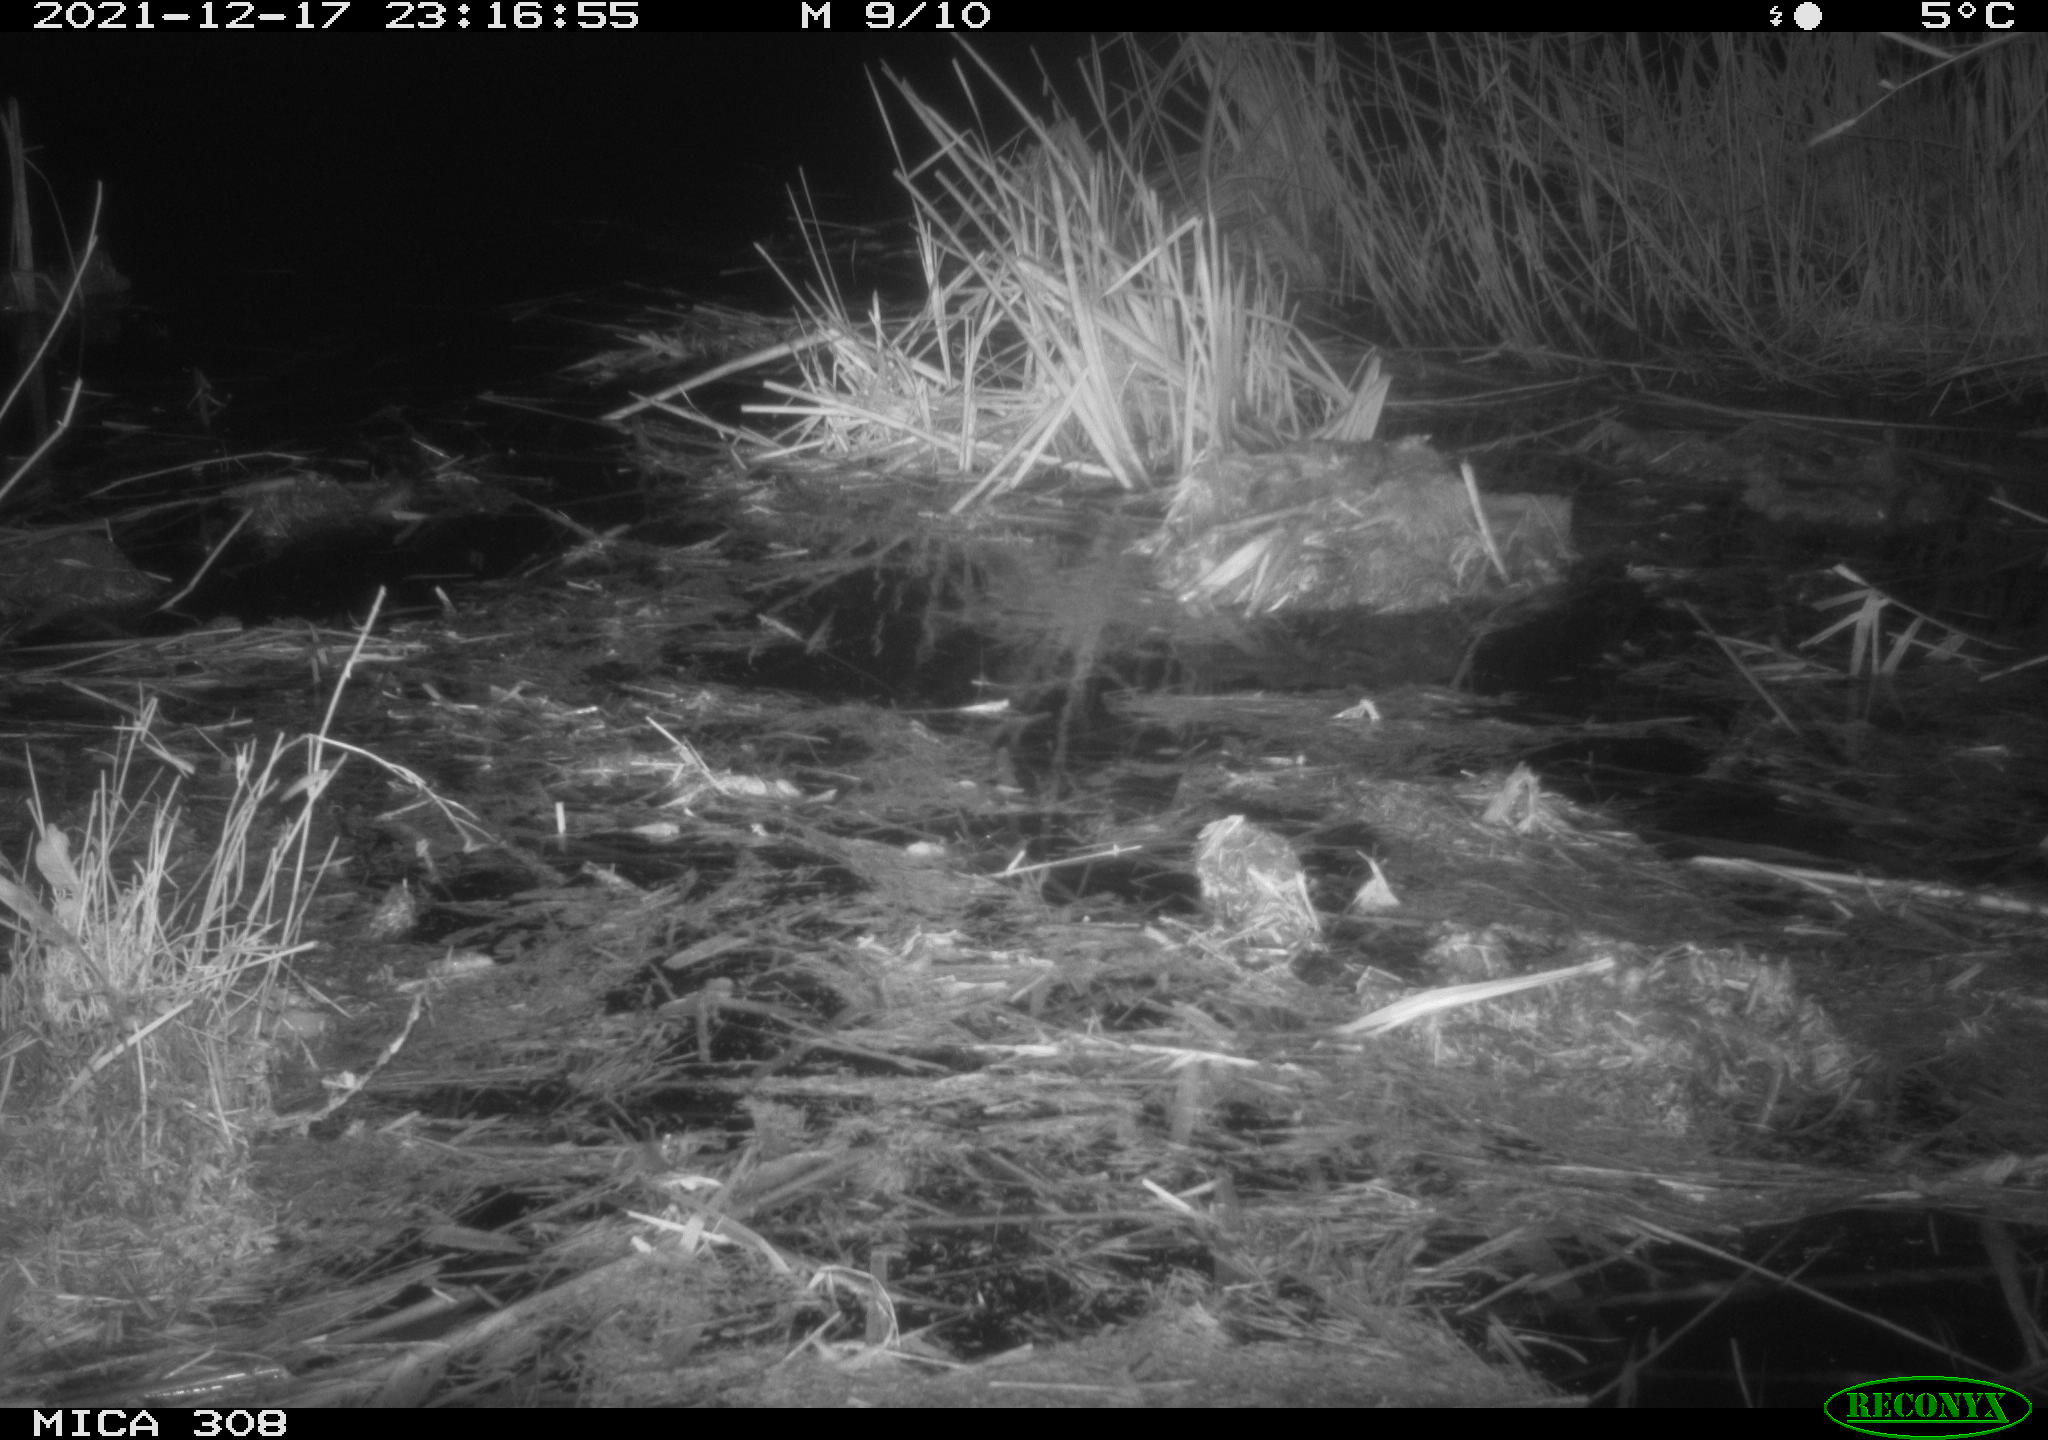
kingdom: Animalia
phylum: Chordata
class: Mammalia
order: Rodentia
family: Muridae
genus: Rattus
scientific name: Rattus norvegicus
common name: Brown rat
